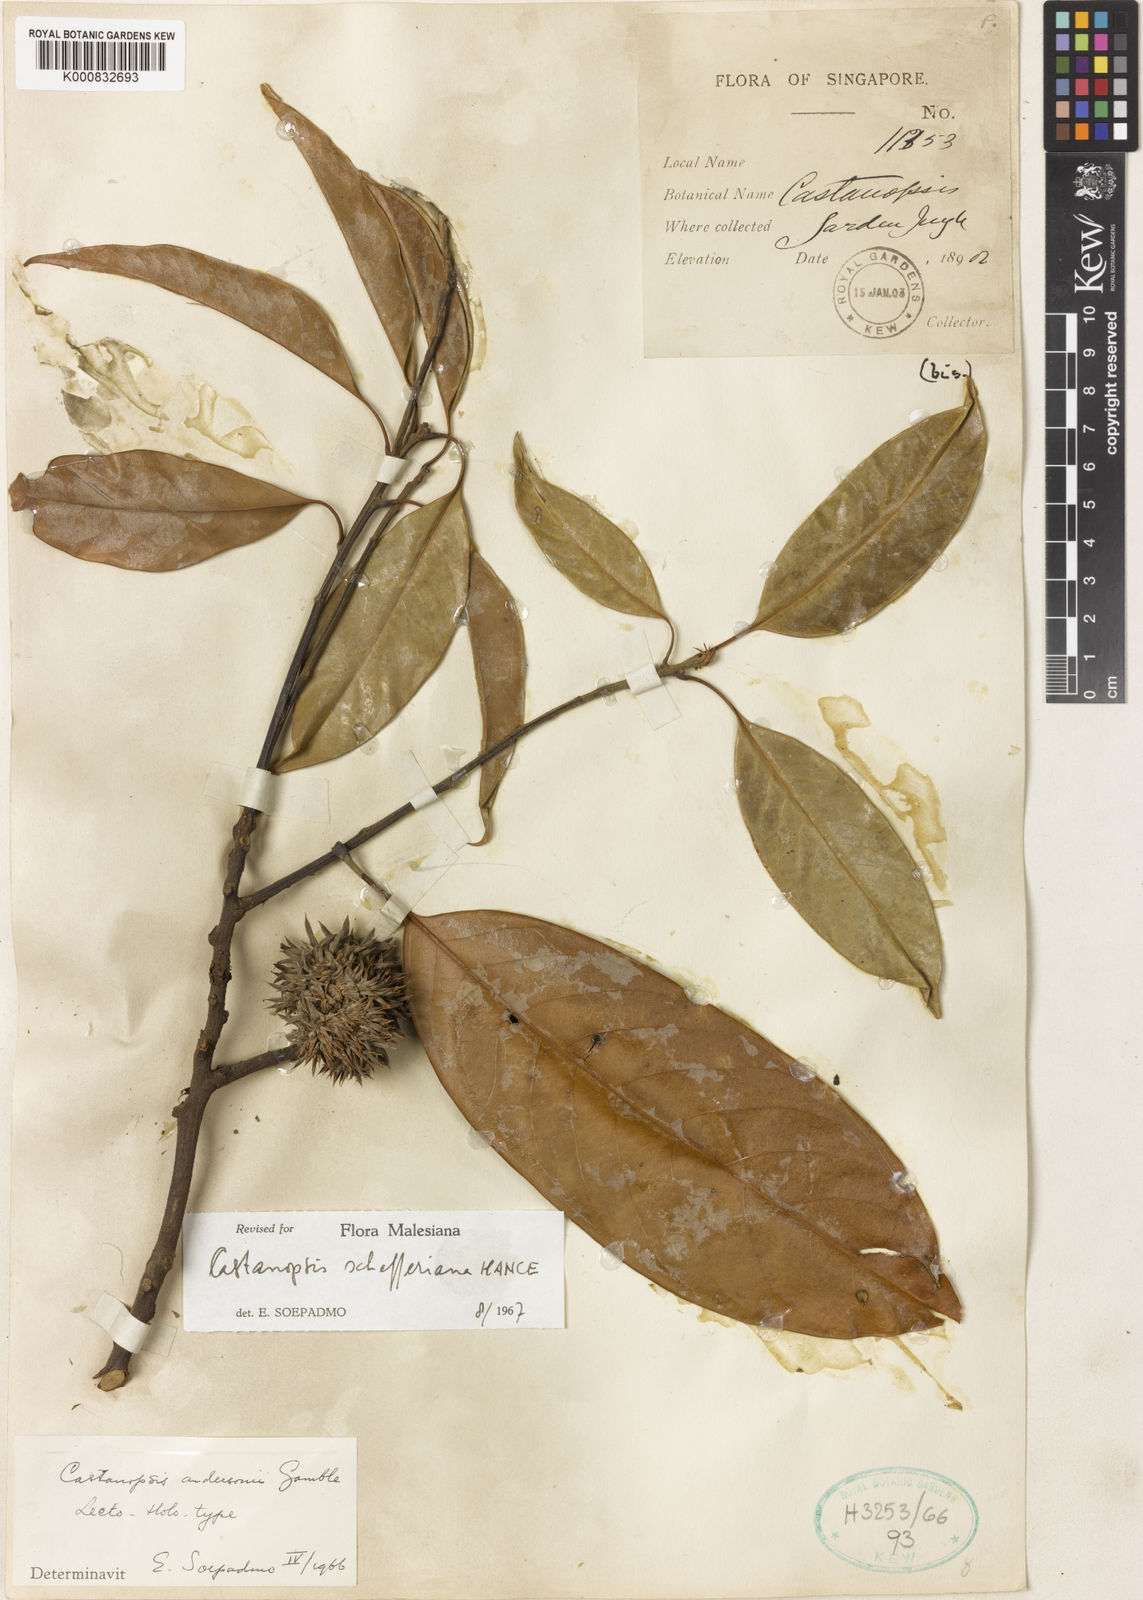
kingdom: Plantae
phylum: Tracheophyta
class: Magnoliopsida
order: Fagales
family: Fagaceae
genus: Castanopsis
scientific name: Castanopsis schefferiana
